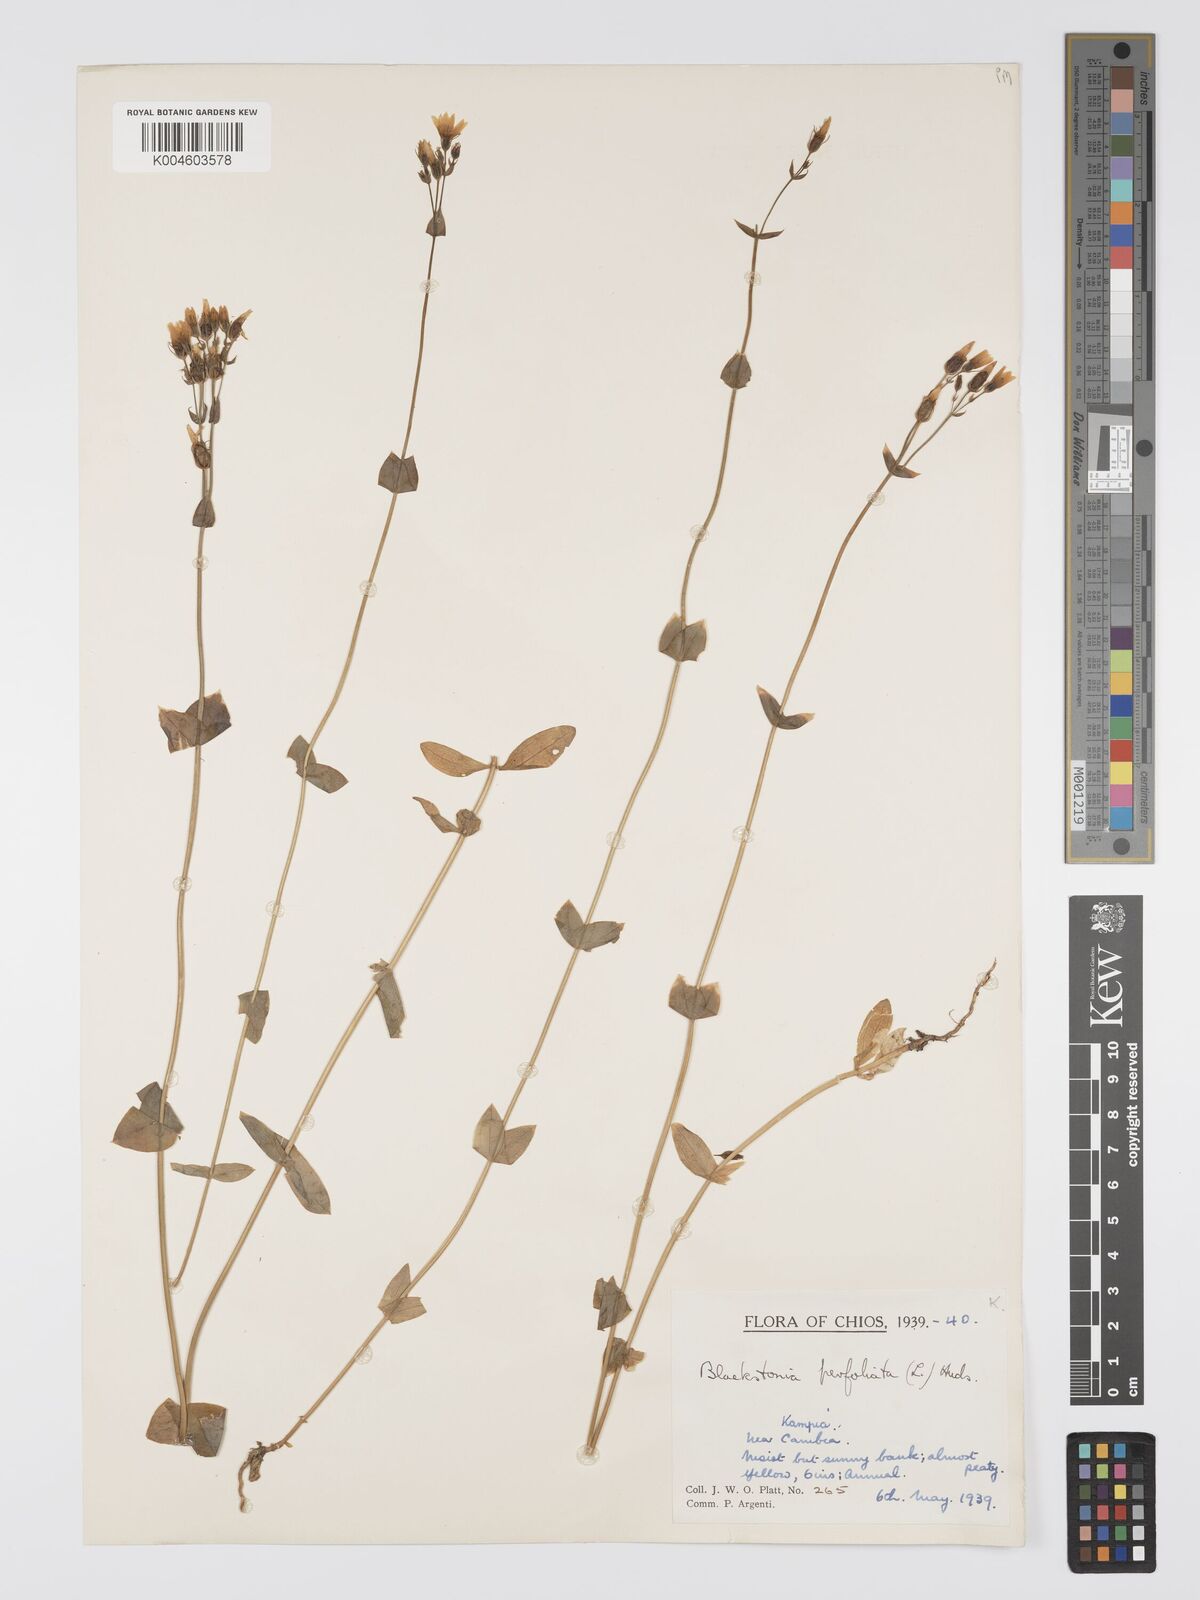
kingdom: Plantae
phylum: Tracheophyta
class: Magnoliopsida
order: Gentianales
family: Gentianaceae
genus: Blackstonia
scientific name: Blackstonia perfoliata
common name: Yellow-wort
